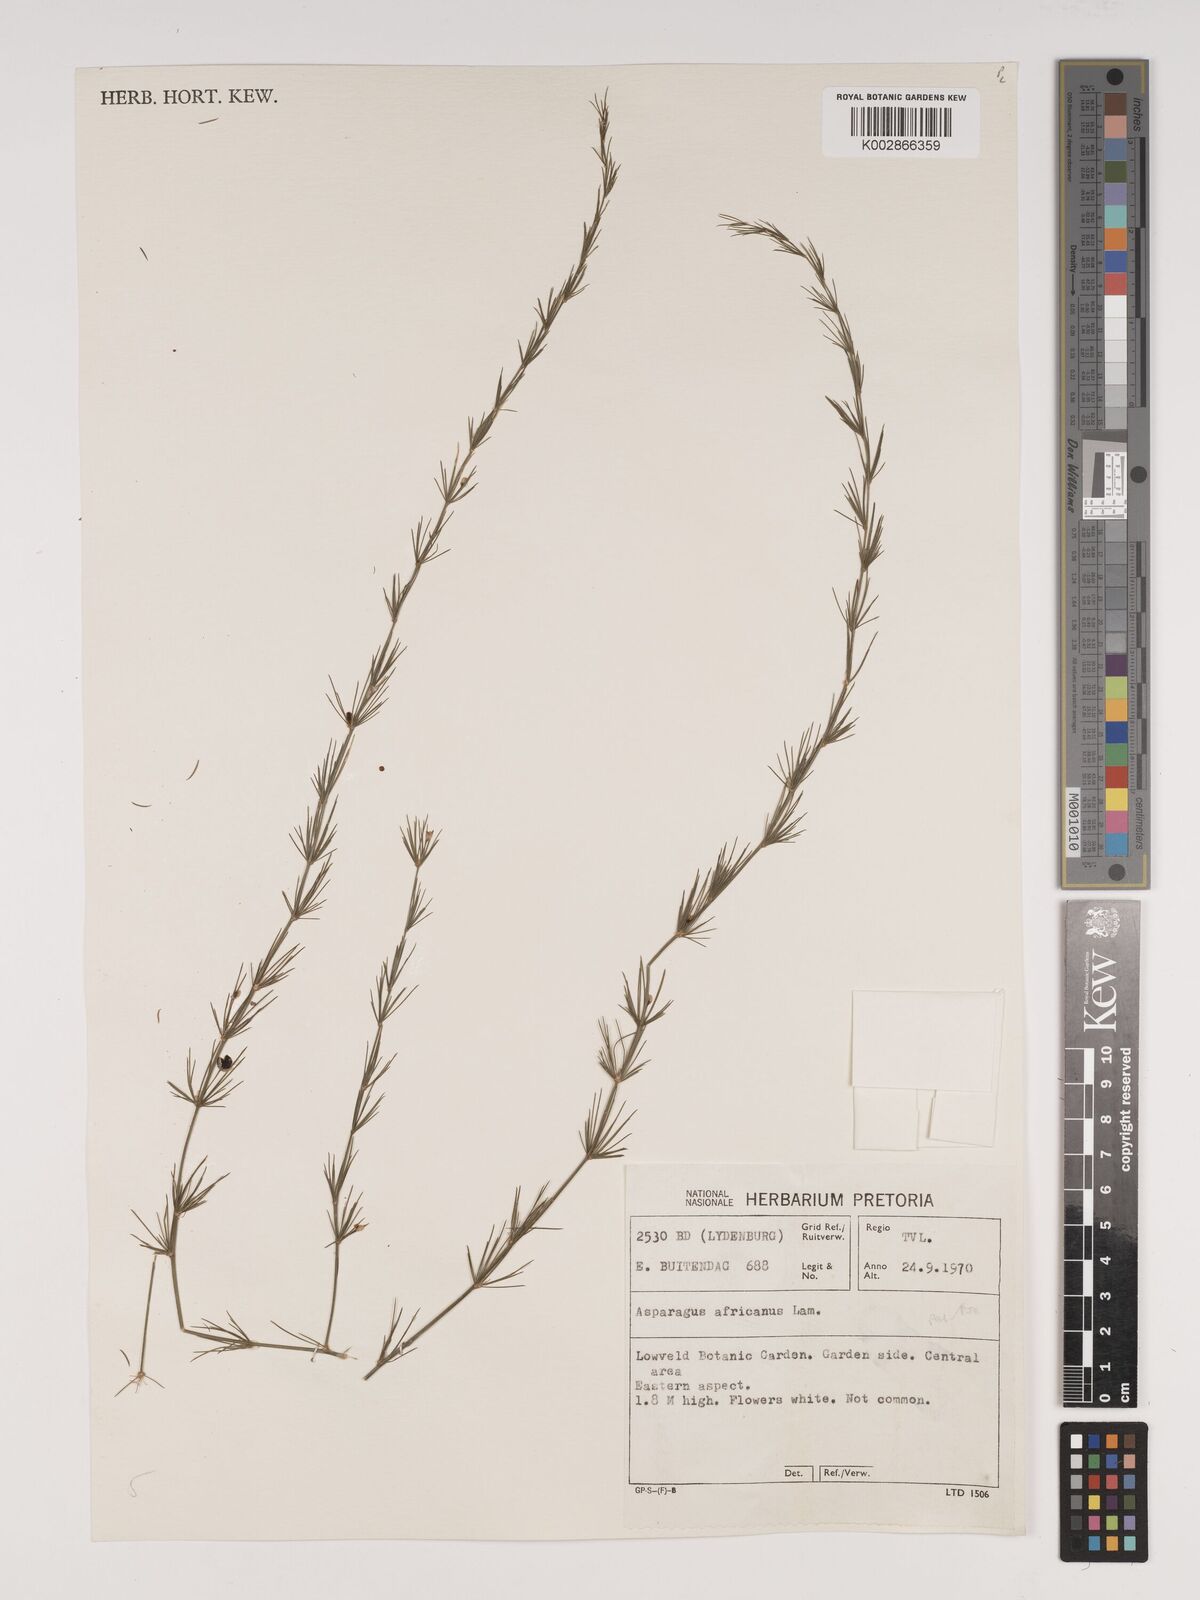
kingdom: Plantae
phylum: Tracheophyta
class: Liliopsida
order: Asparagales
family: Asparagaceae
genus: Asparagus
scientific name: Asparagus africanus
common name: Asparagus-fern
